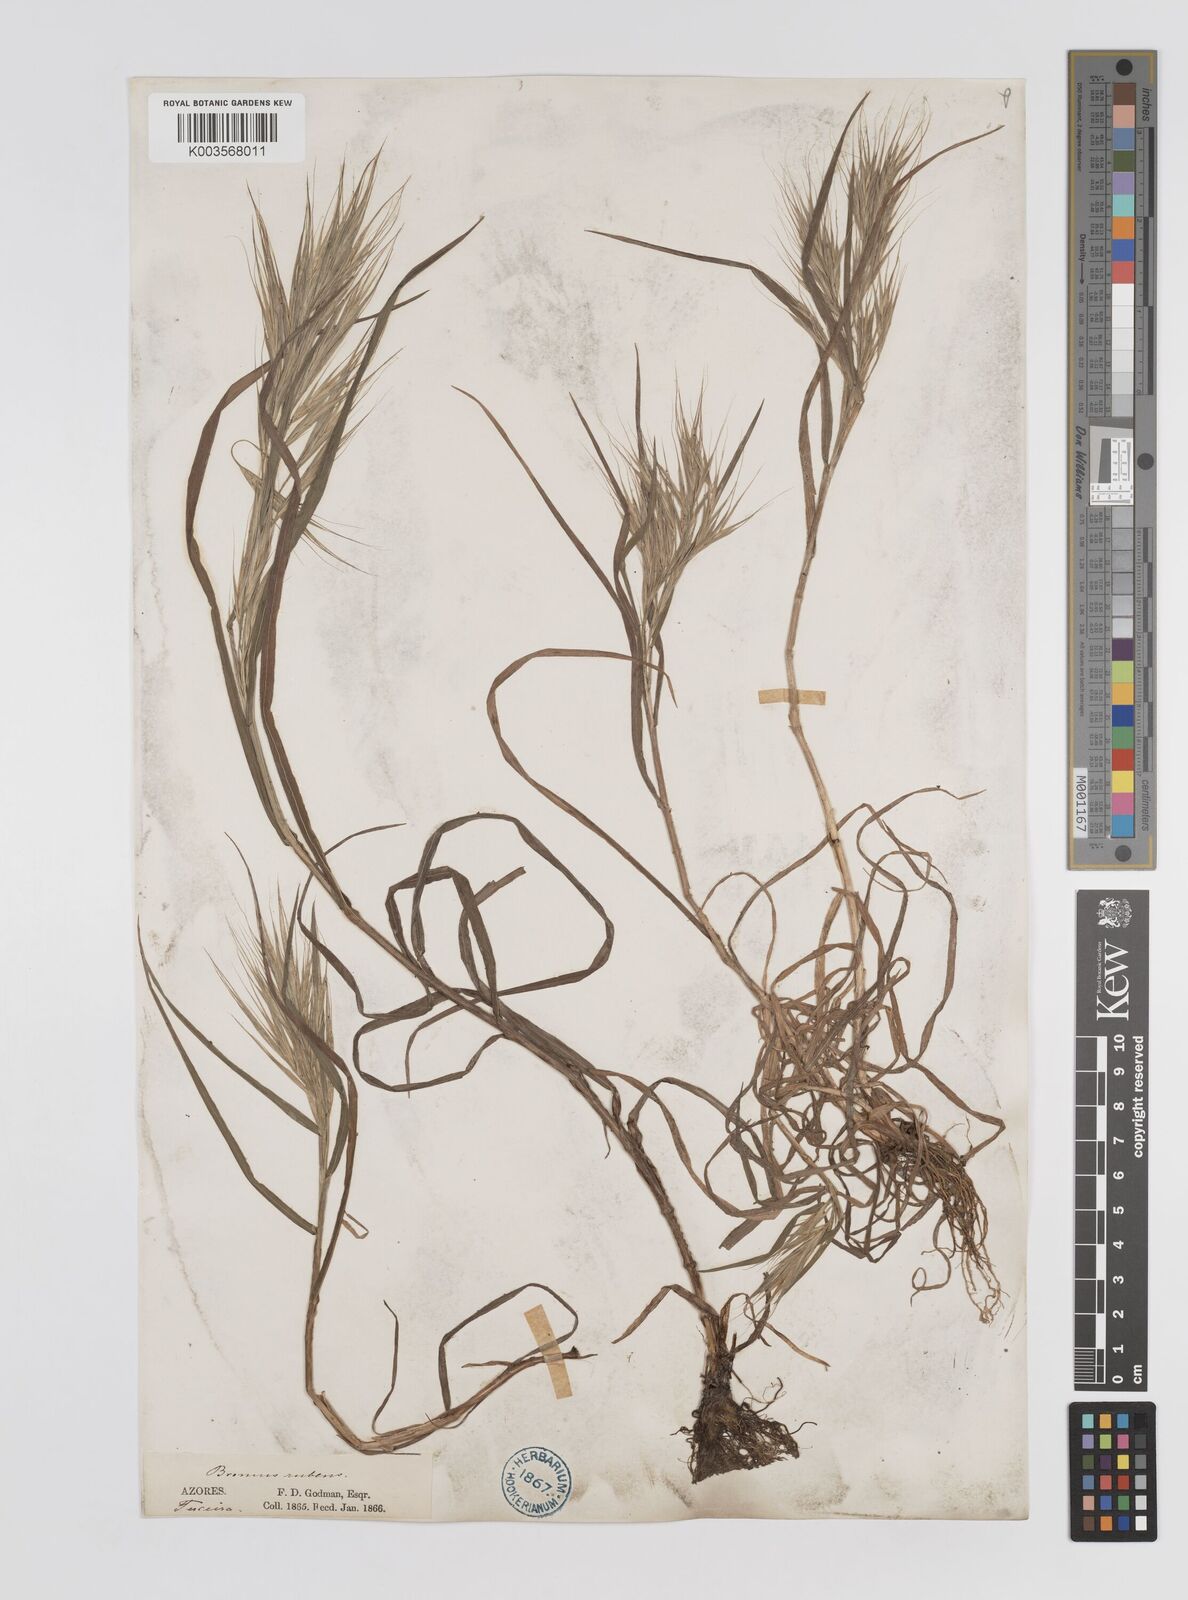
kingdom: Plantae
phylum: Tracheophyta
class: Liliopsida
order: Poales
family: Poaceae
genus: Bromus
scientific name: Bromus
